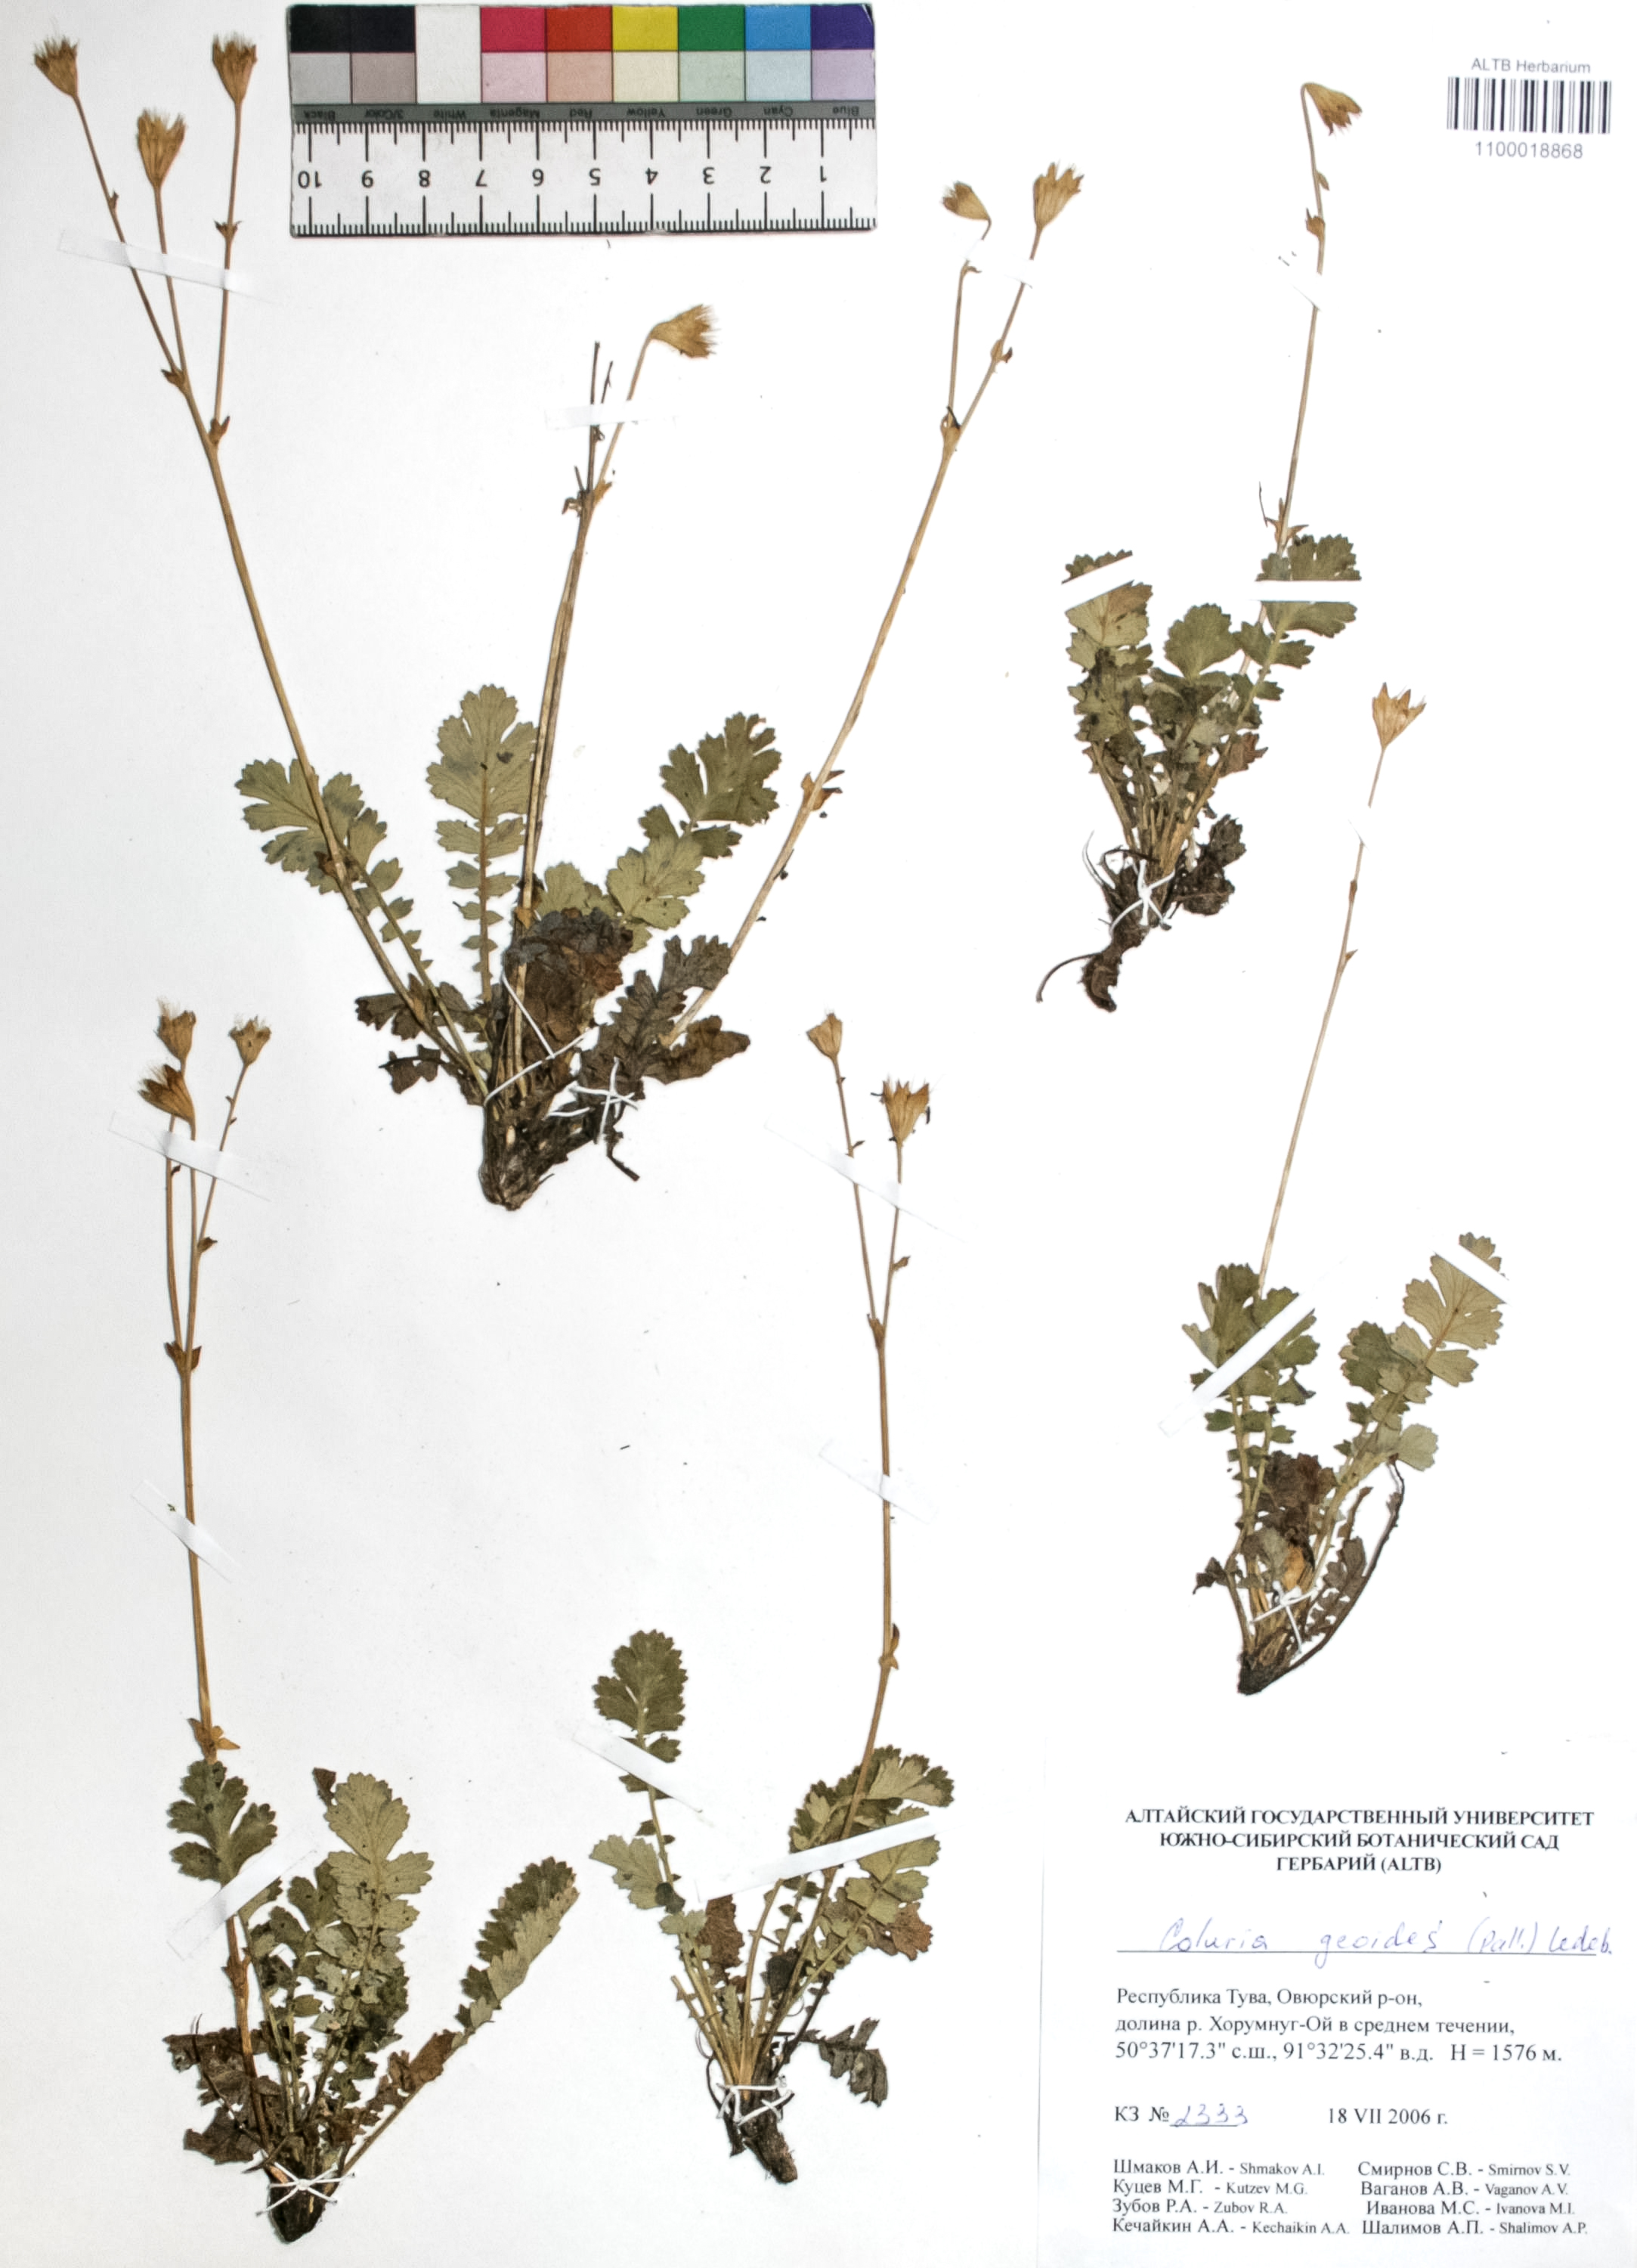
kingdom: Plantae
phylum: Tracheophyta
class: Magnoliopsida
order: Rosales
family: Rosaceae
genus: Geum
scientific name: Geum geoides
